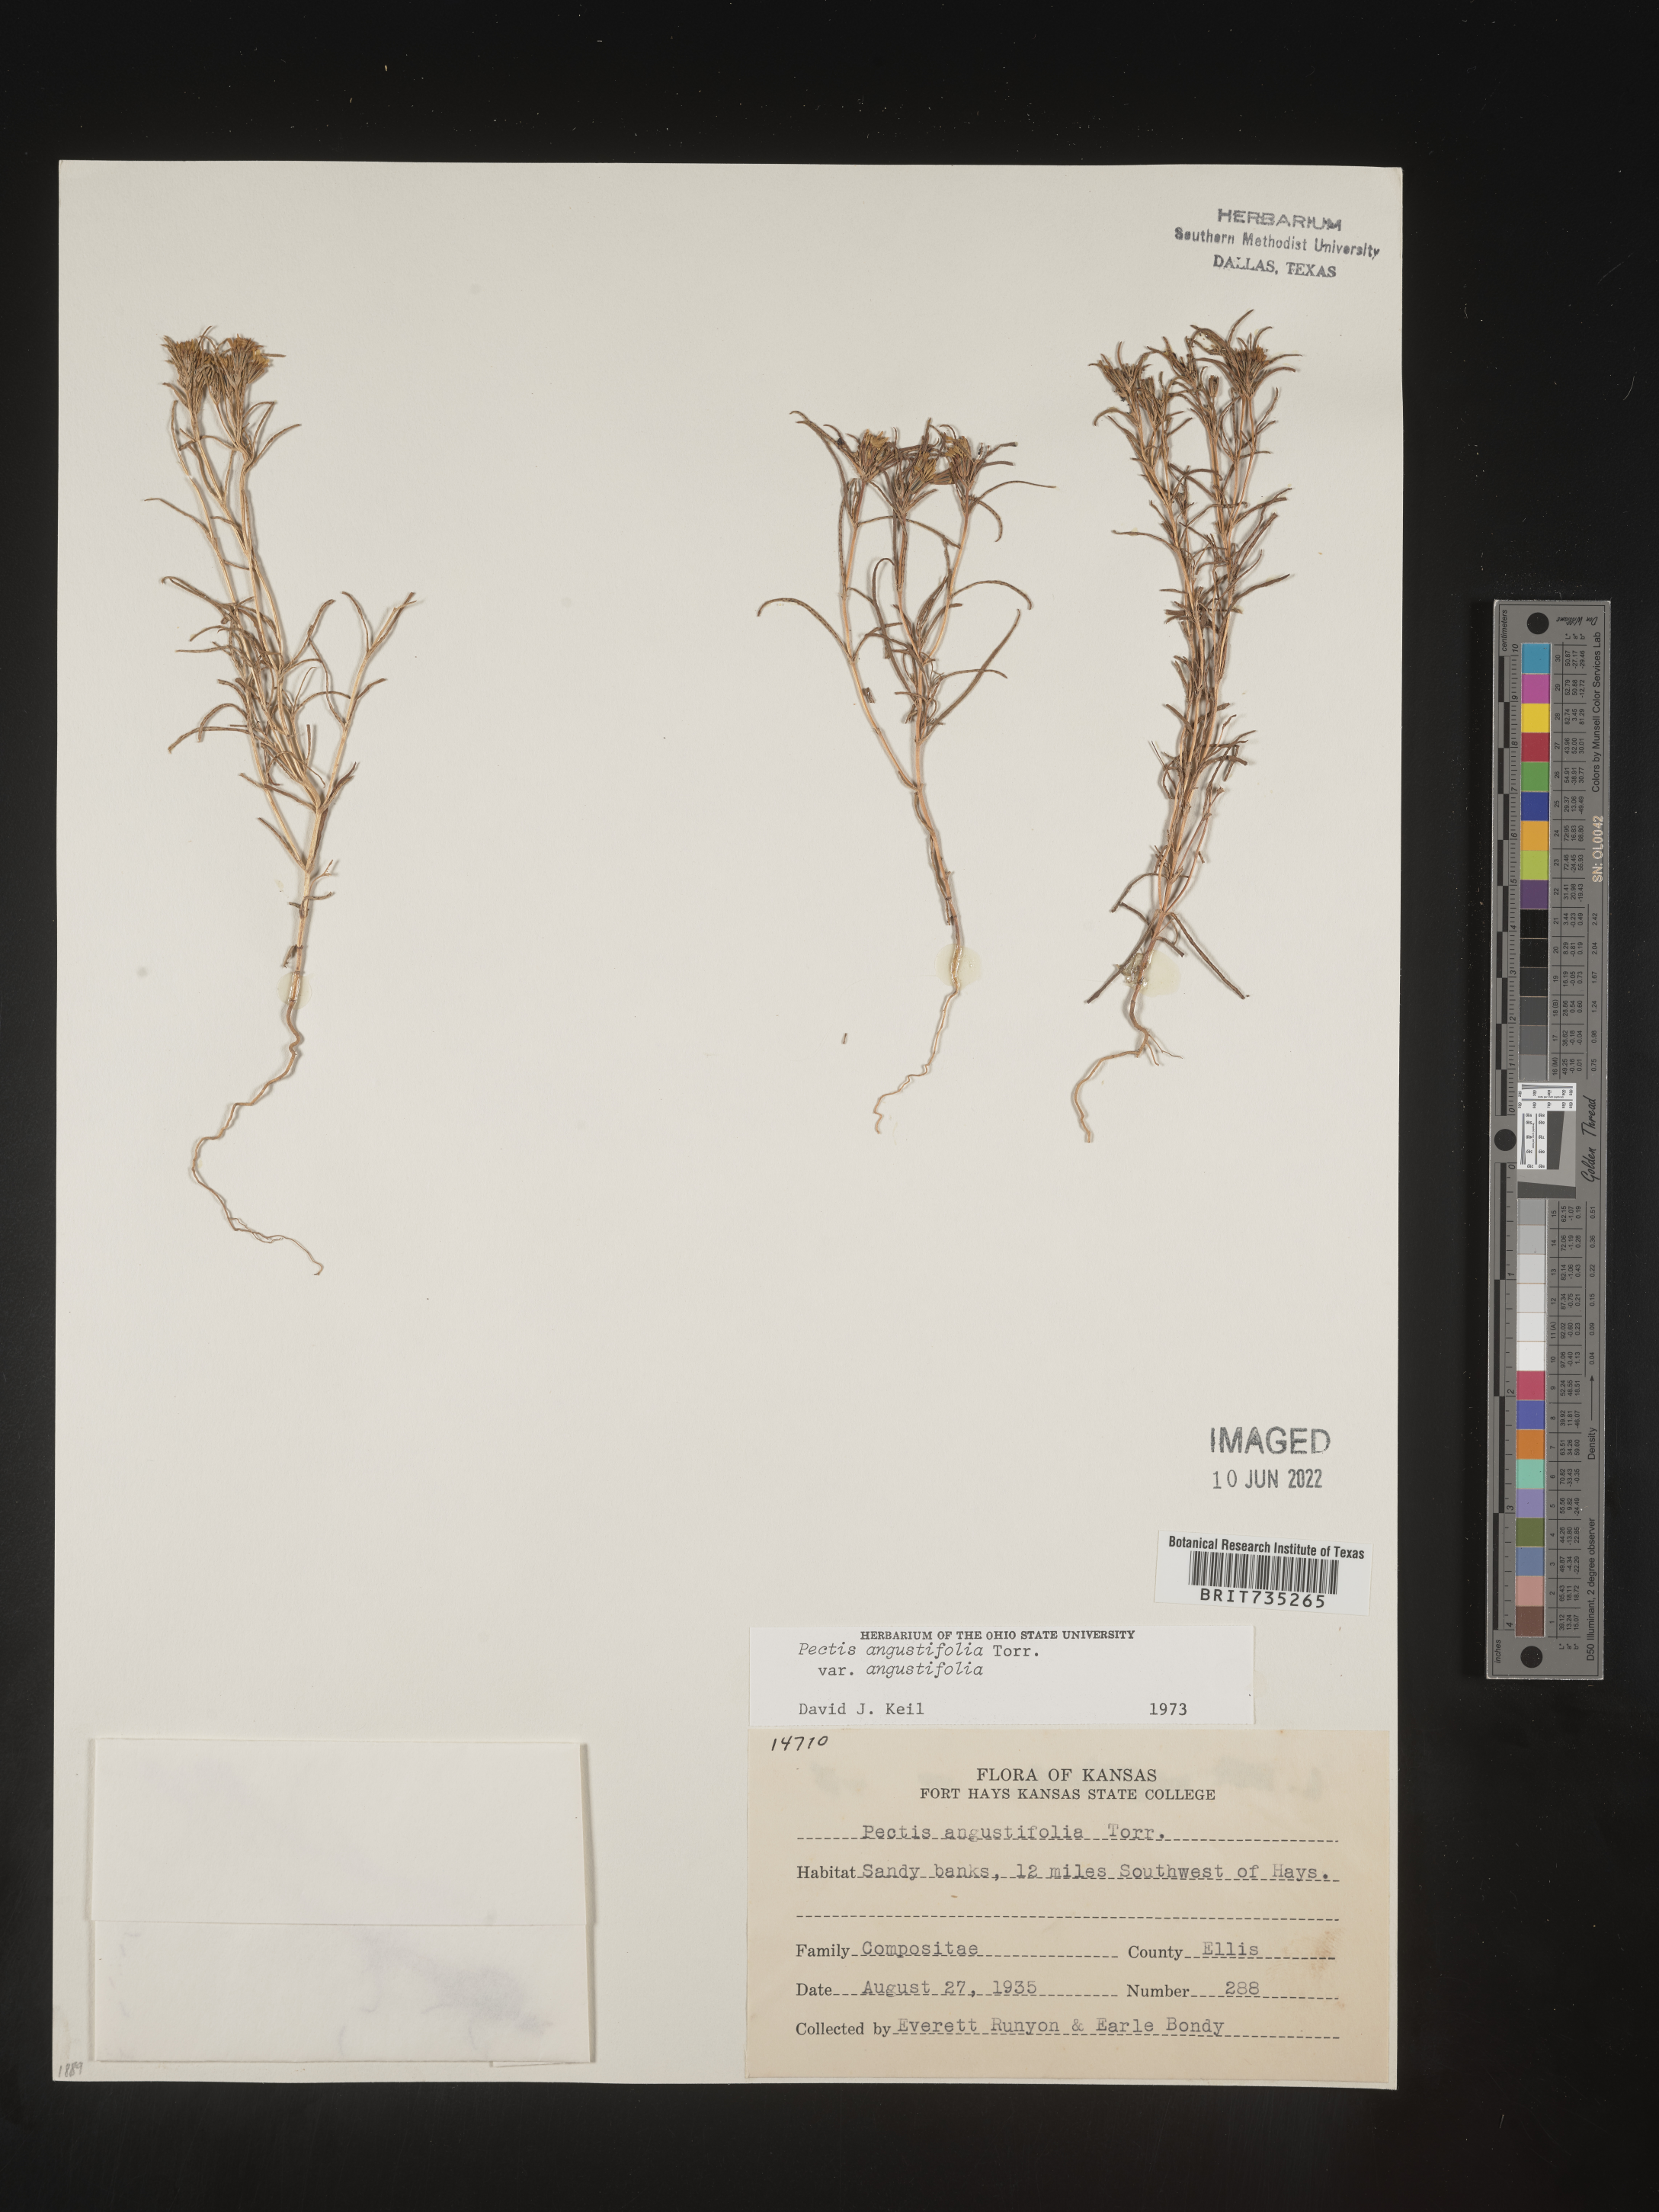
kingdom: Plantae
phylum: Tracheophyta
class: Magnoliopsida
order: Asterales
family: Asteraceae
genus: Pectis
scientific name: Pectis angustifolia
